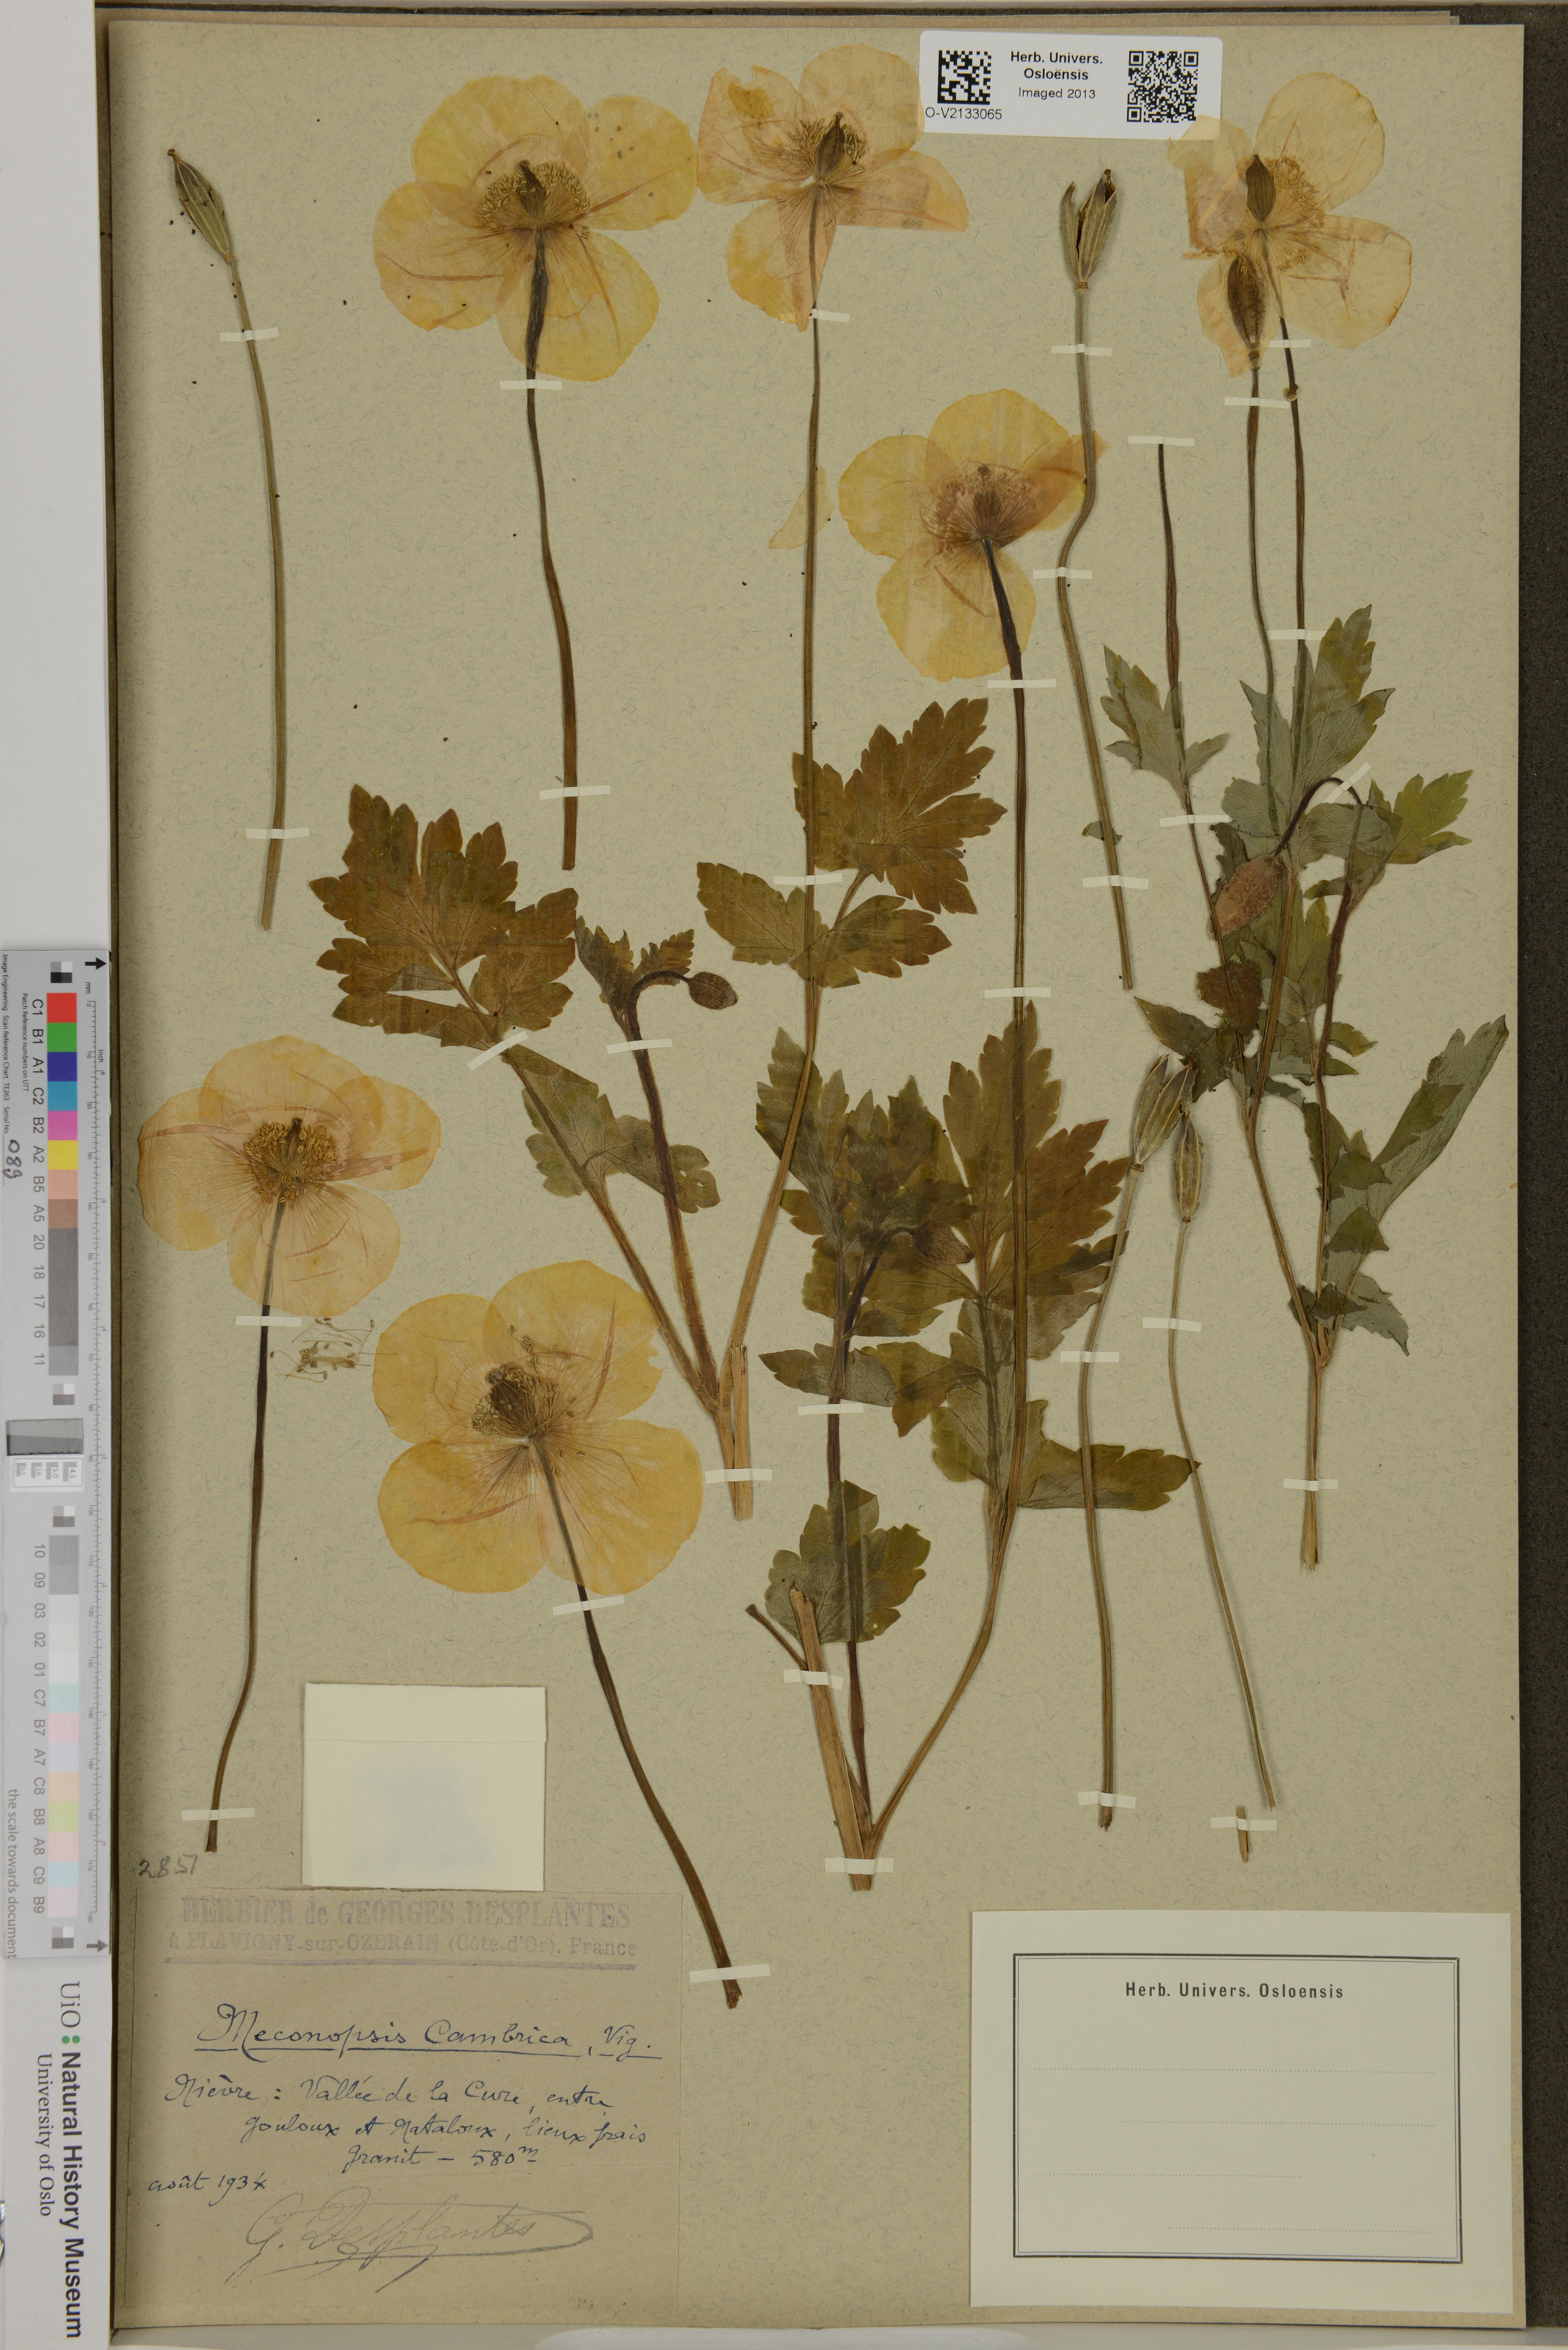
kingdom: Plantae
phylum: Tracheophyta
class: Magnoliopsida
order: Ranunculales
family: Papaveraceae
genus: Papaver
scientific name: Papaver cambricum
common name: Poppy
